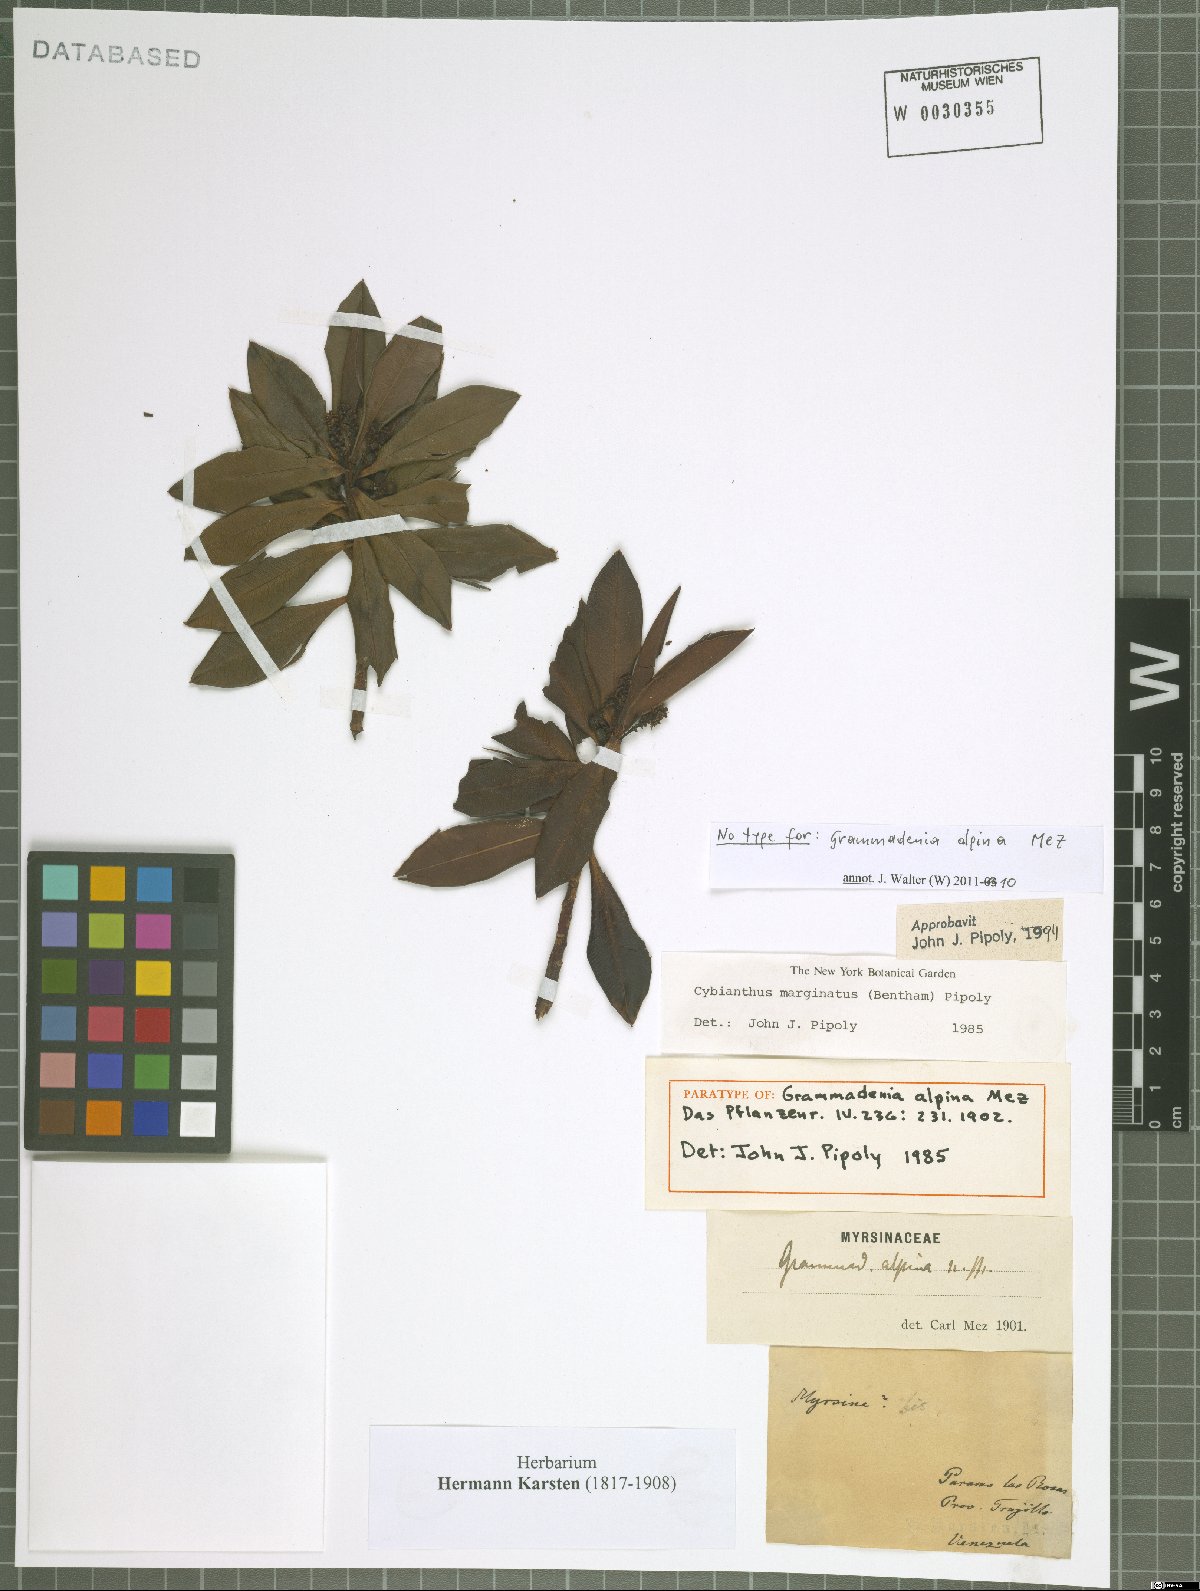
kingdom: Plantae
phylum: Tracheophyta
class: Magnoliopsida
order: Ericales
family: Primulaceae
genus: Cybianthus
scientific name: Cybianthus marginatus
